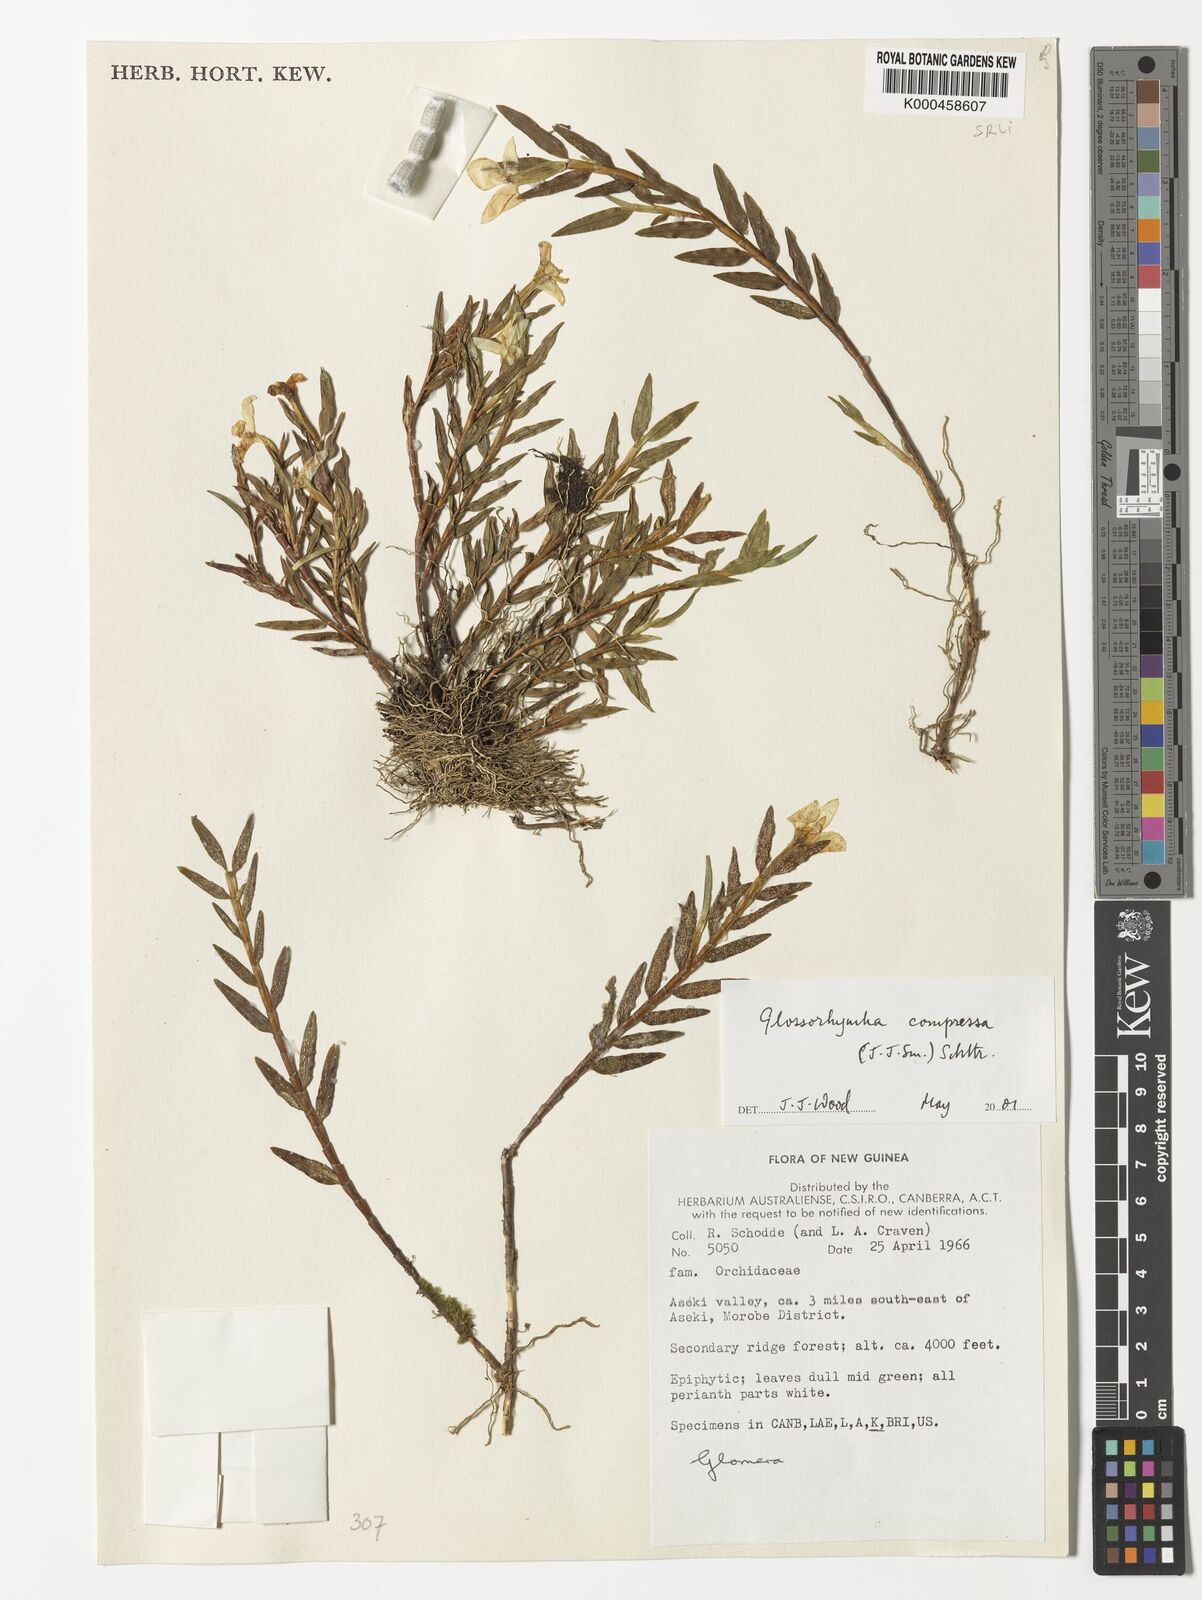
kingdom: Plantae
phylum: Tracheophyta
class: Liliopsida
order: Asparagales
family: Orchidaceae
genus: Glomera
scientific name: Glomera compressa
